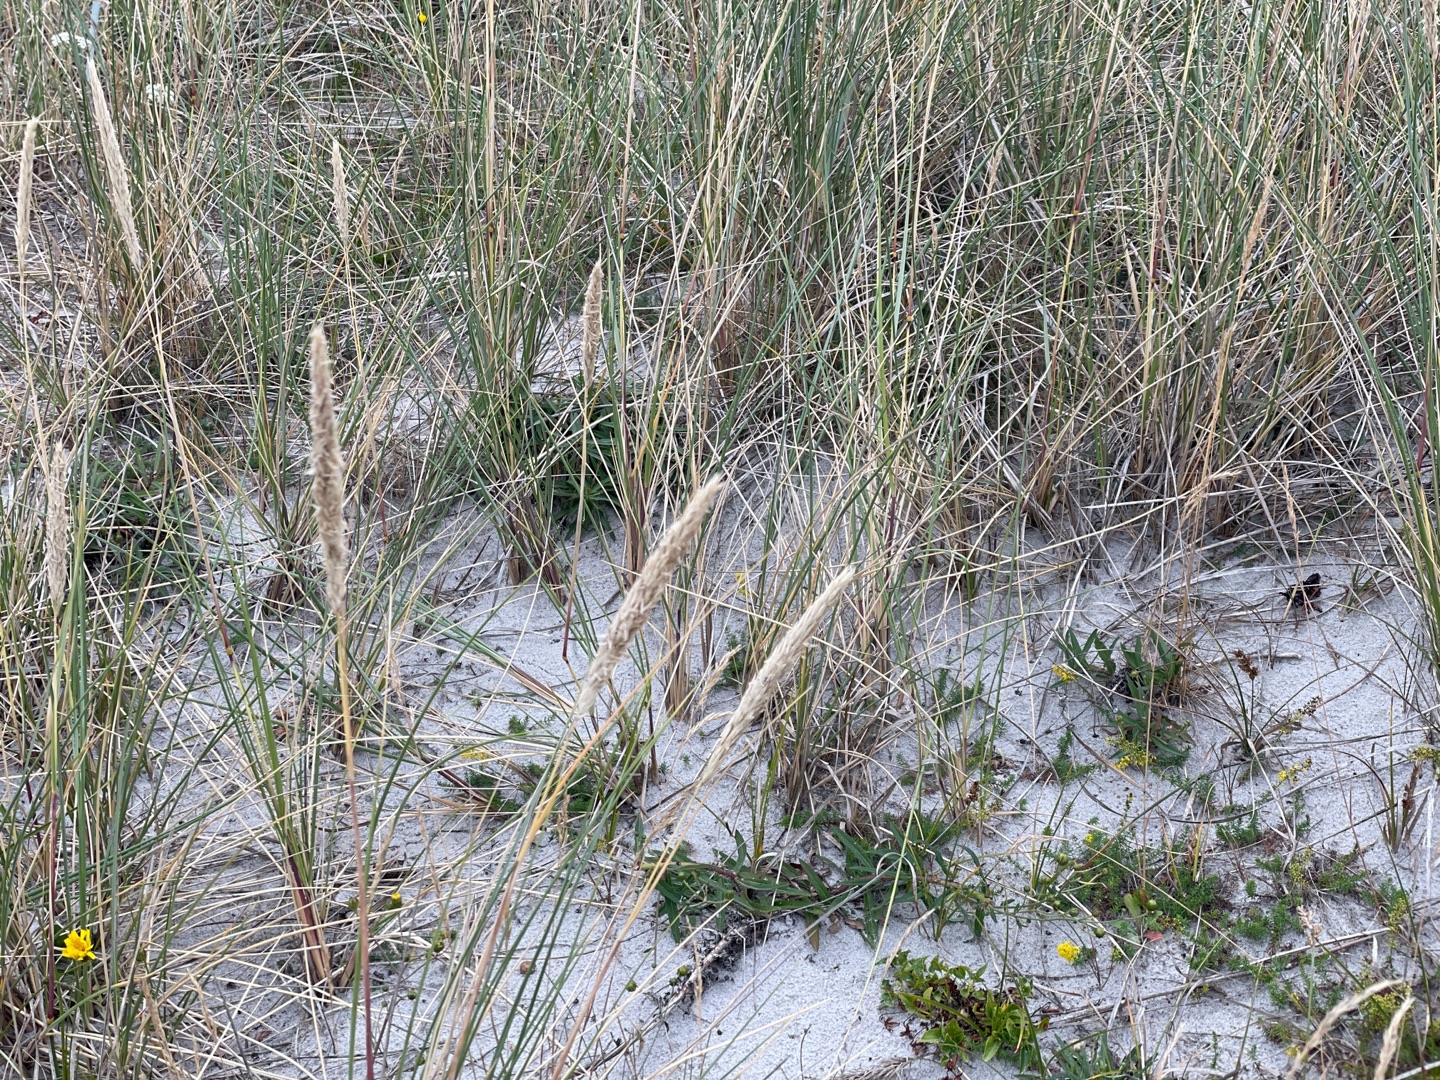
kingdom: Plantae
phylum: Tracheophyta
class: Liliopsida
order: Poales
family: Poaceae
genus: Calamagrostis
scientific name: Calamagrostis arenaria
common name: Sand-hjælme
